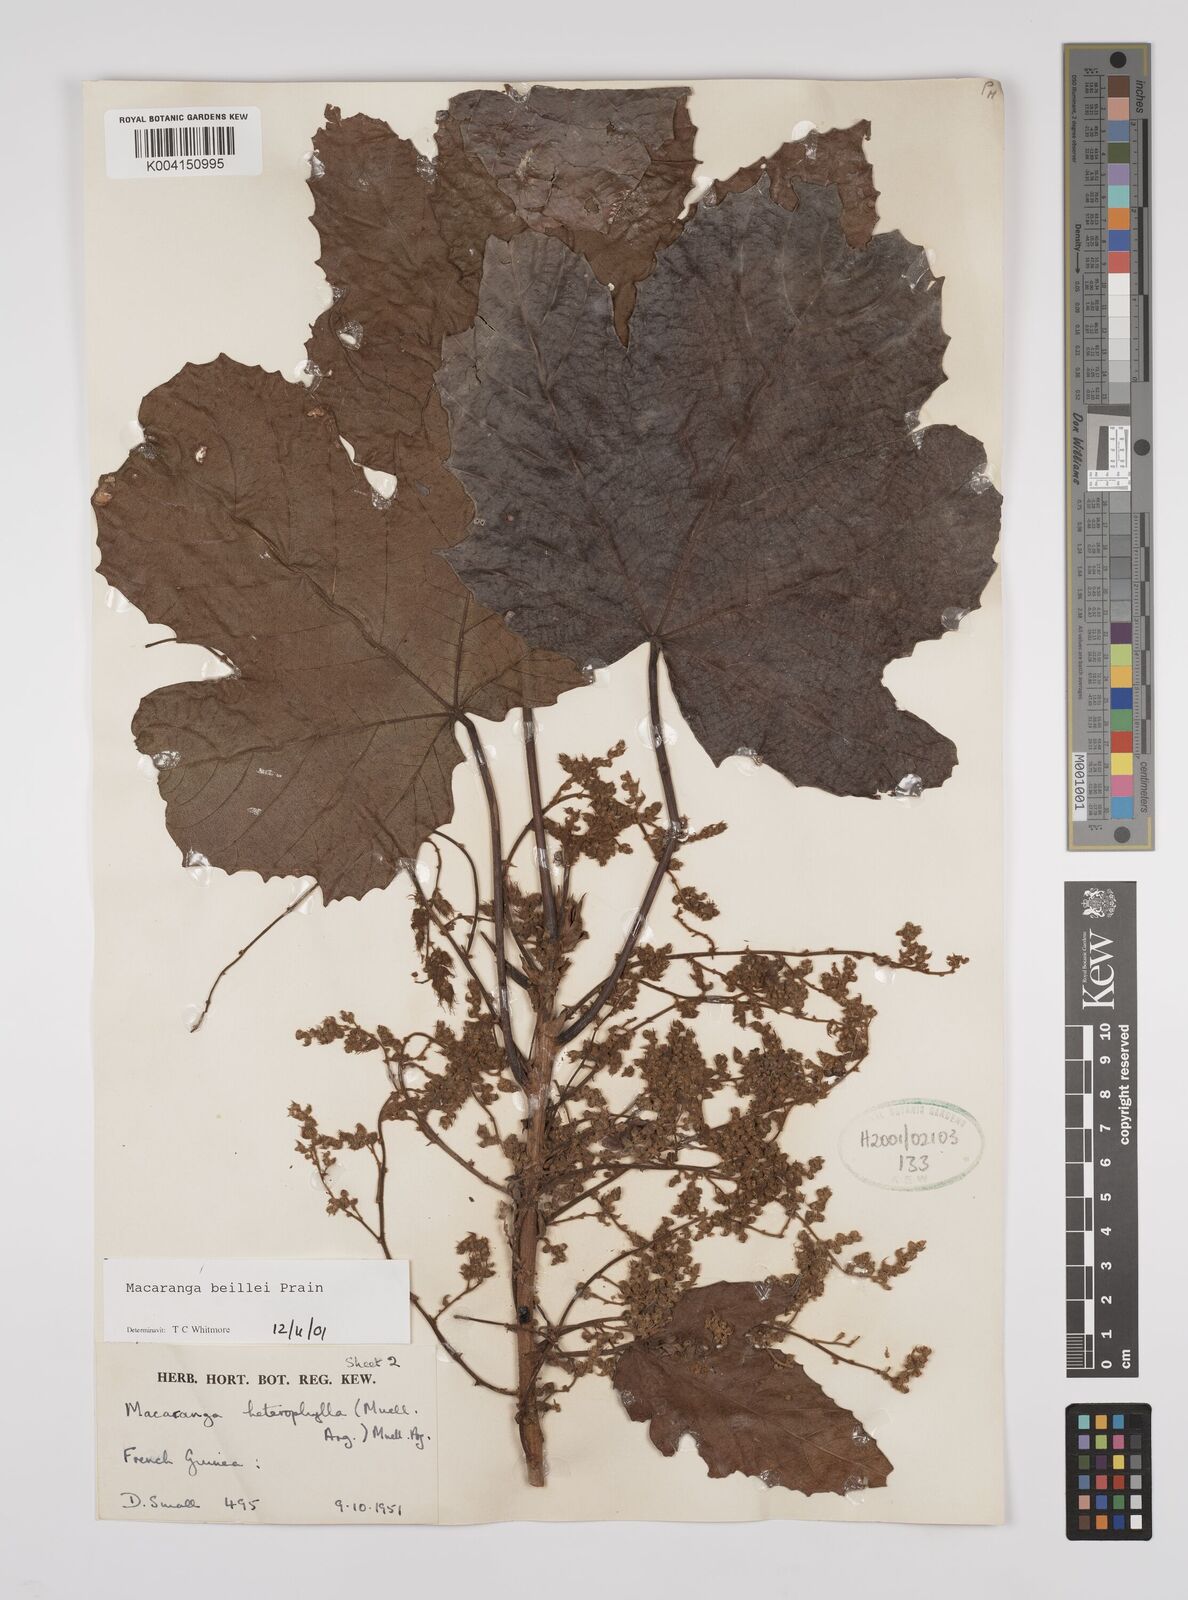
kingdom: Plantae
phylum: Tracheophyta
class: Magnoliopsida
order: Malpighiales
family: Euphorbiaceae
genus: Macaranga
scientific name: Macaranga beillei
